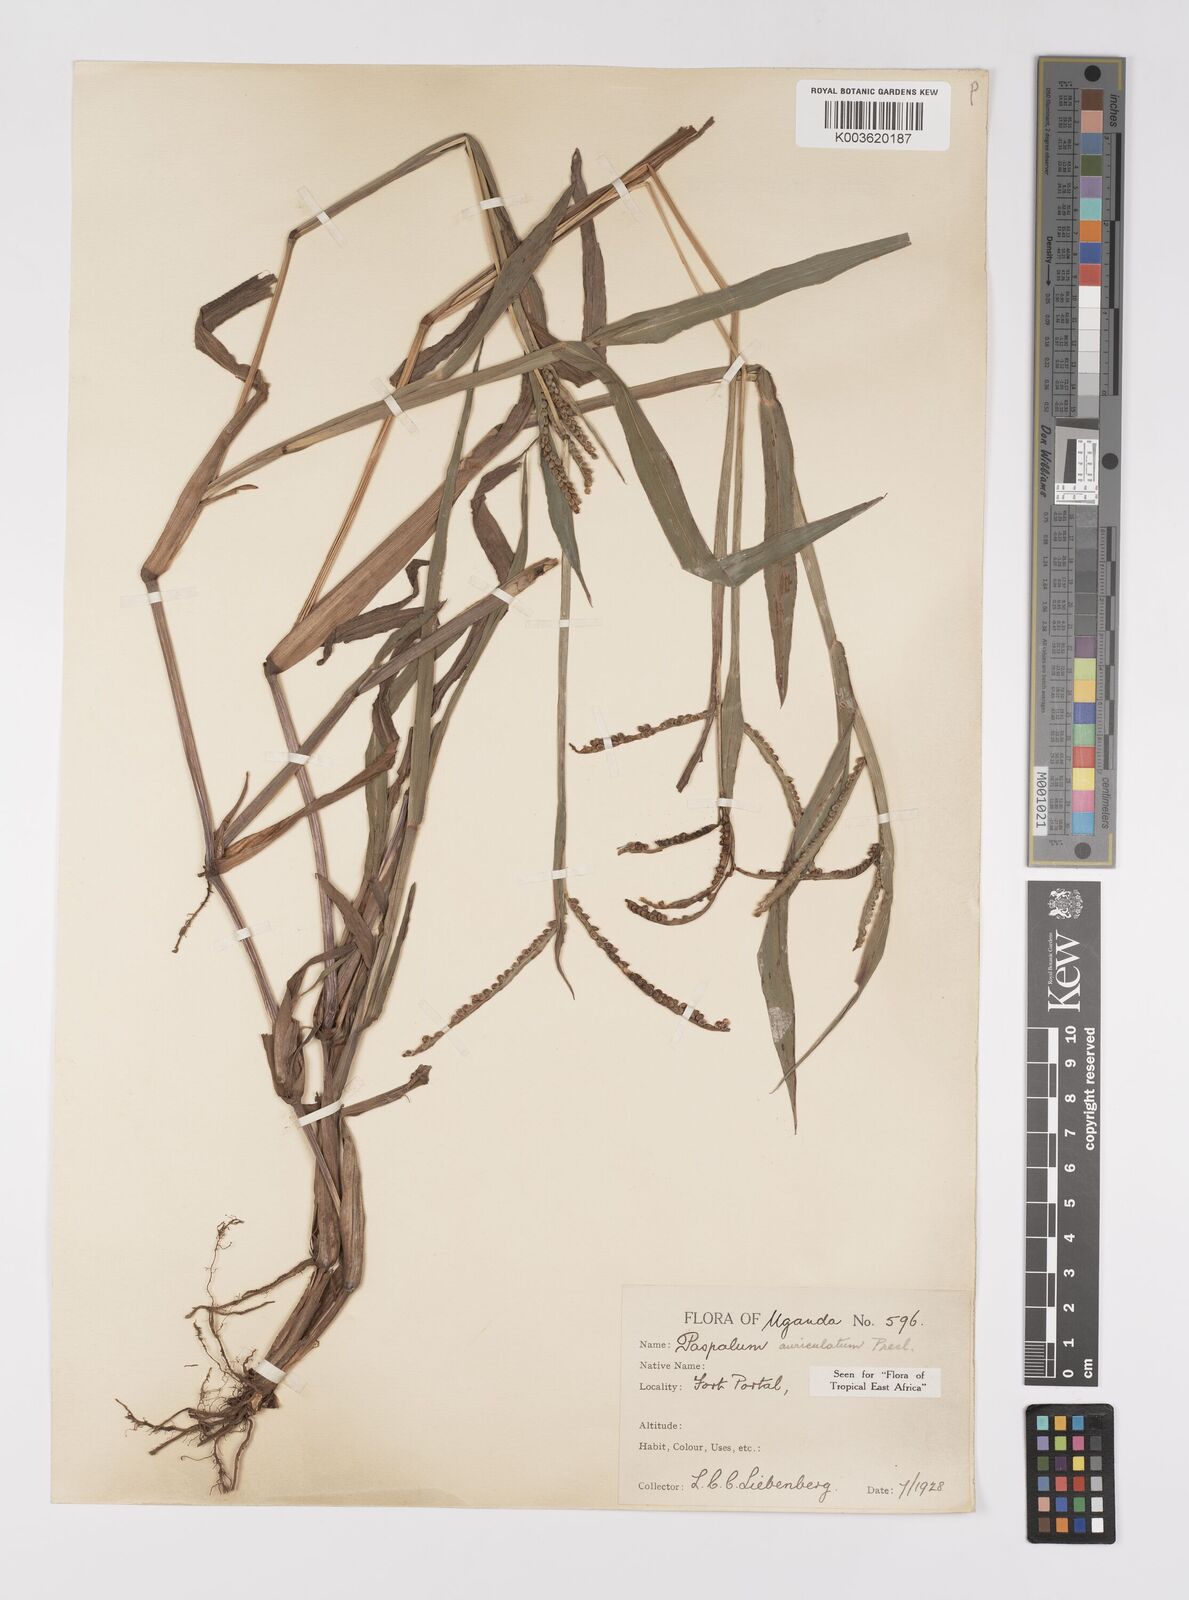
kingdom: Plantae
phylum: Tracheophyta
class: Liliopsida
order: Poales
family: Poaceae
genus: Paspalum
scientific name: Paspalum lamprocaryon
